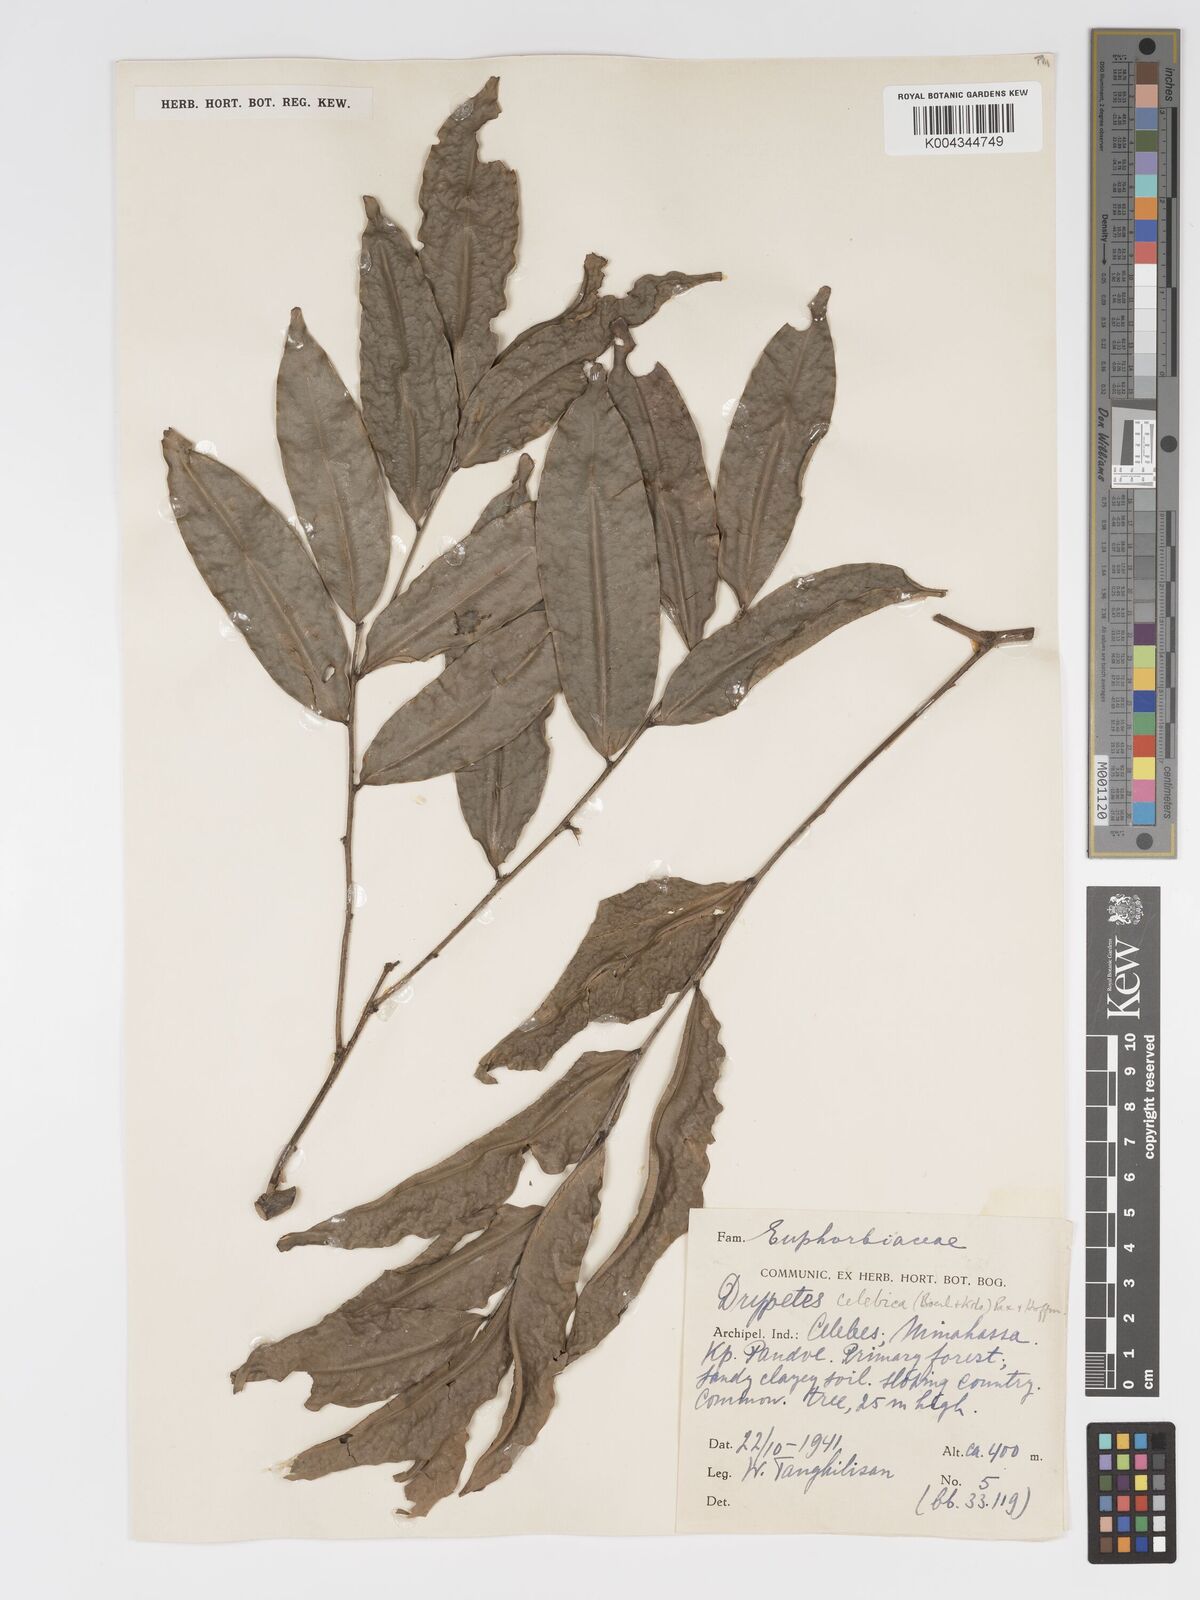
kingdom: Plantae
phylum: Tracheophyta
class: Magnoliopsida
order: Malpighiales
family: Putranjivaceae
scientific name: Putranjivaceae
